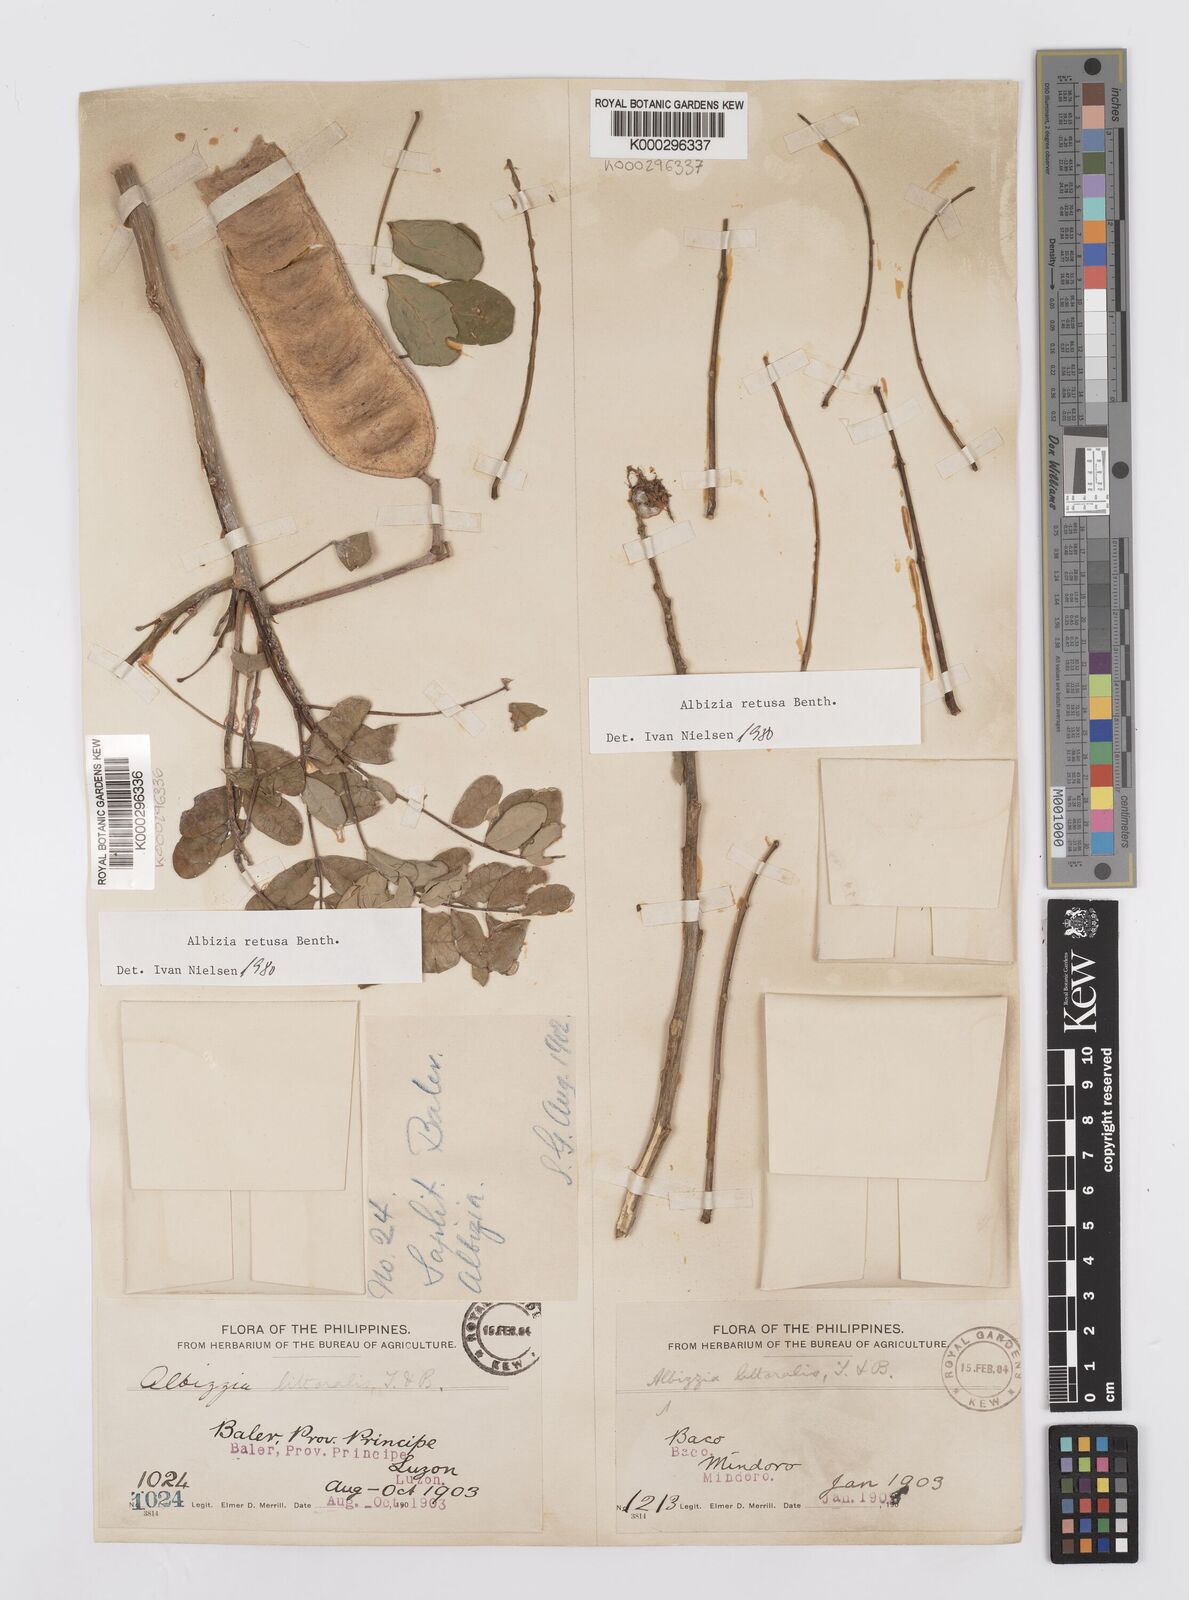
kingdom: Plantae
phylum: Tracheophyta
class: Magnoliopsida
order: Fabales
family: Fabaceae
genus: Albizia
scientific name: Albizia retusa
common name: Sea albizia
